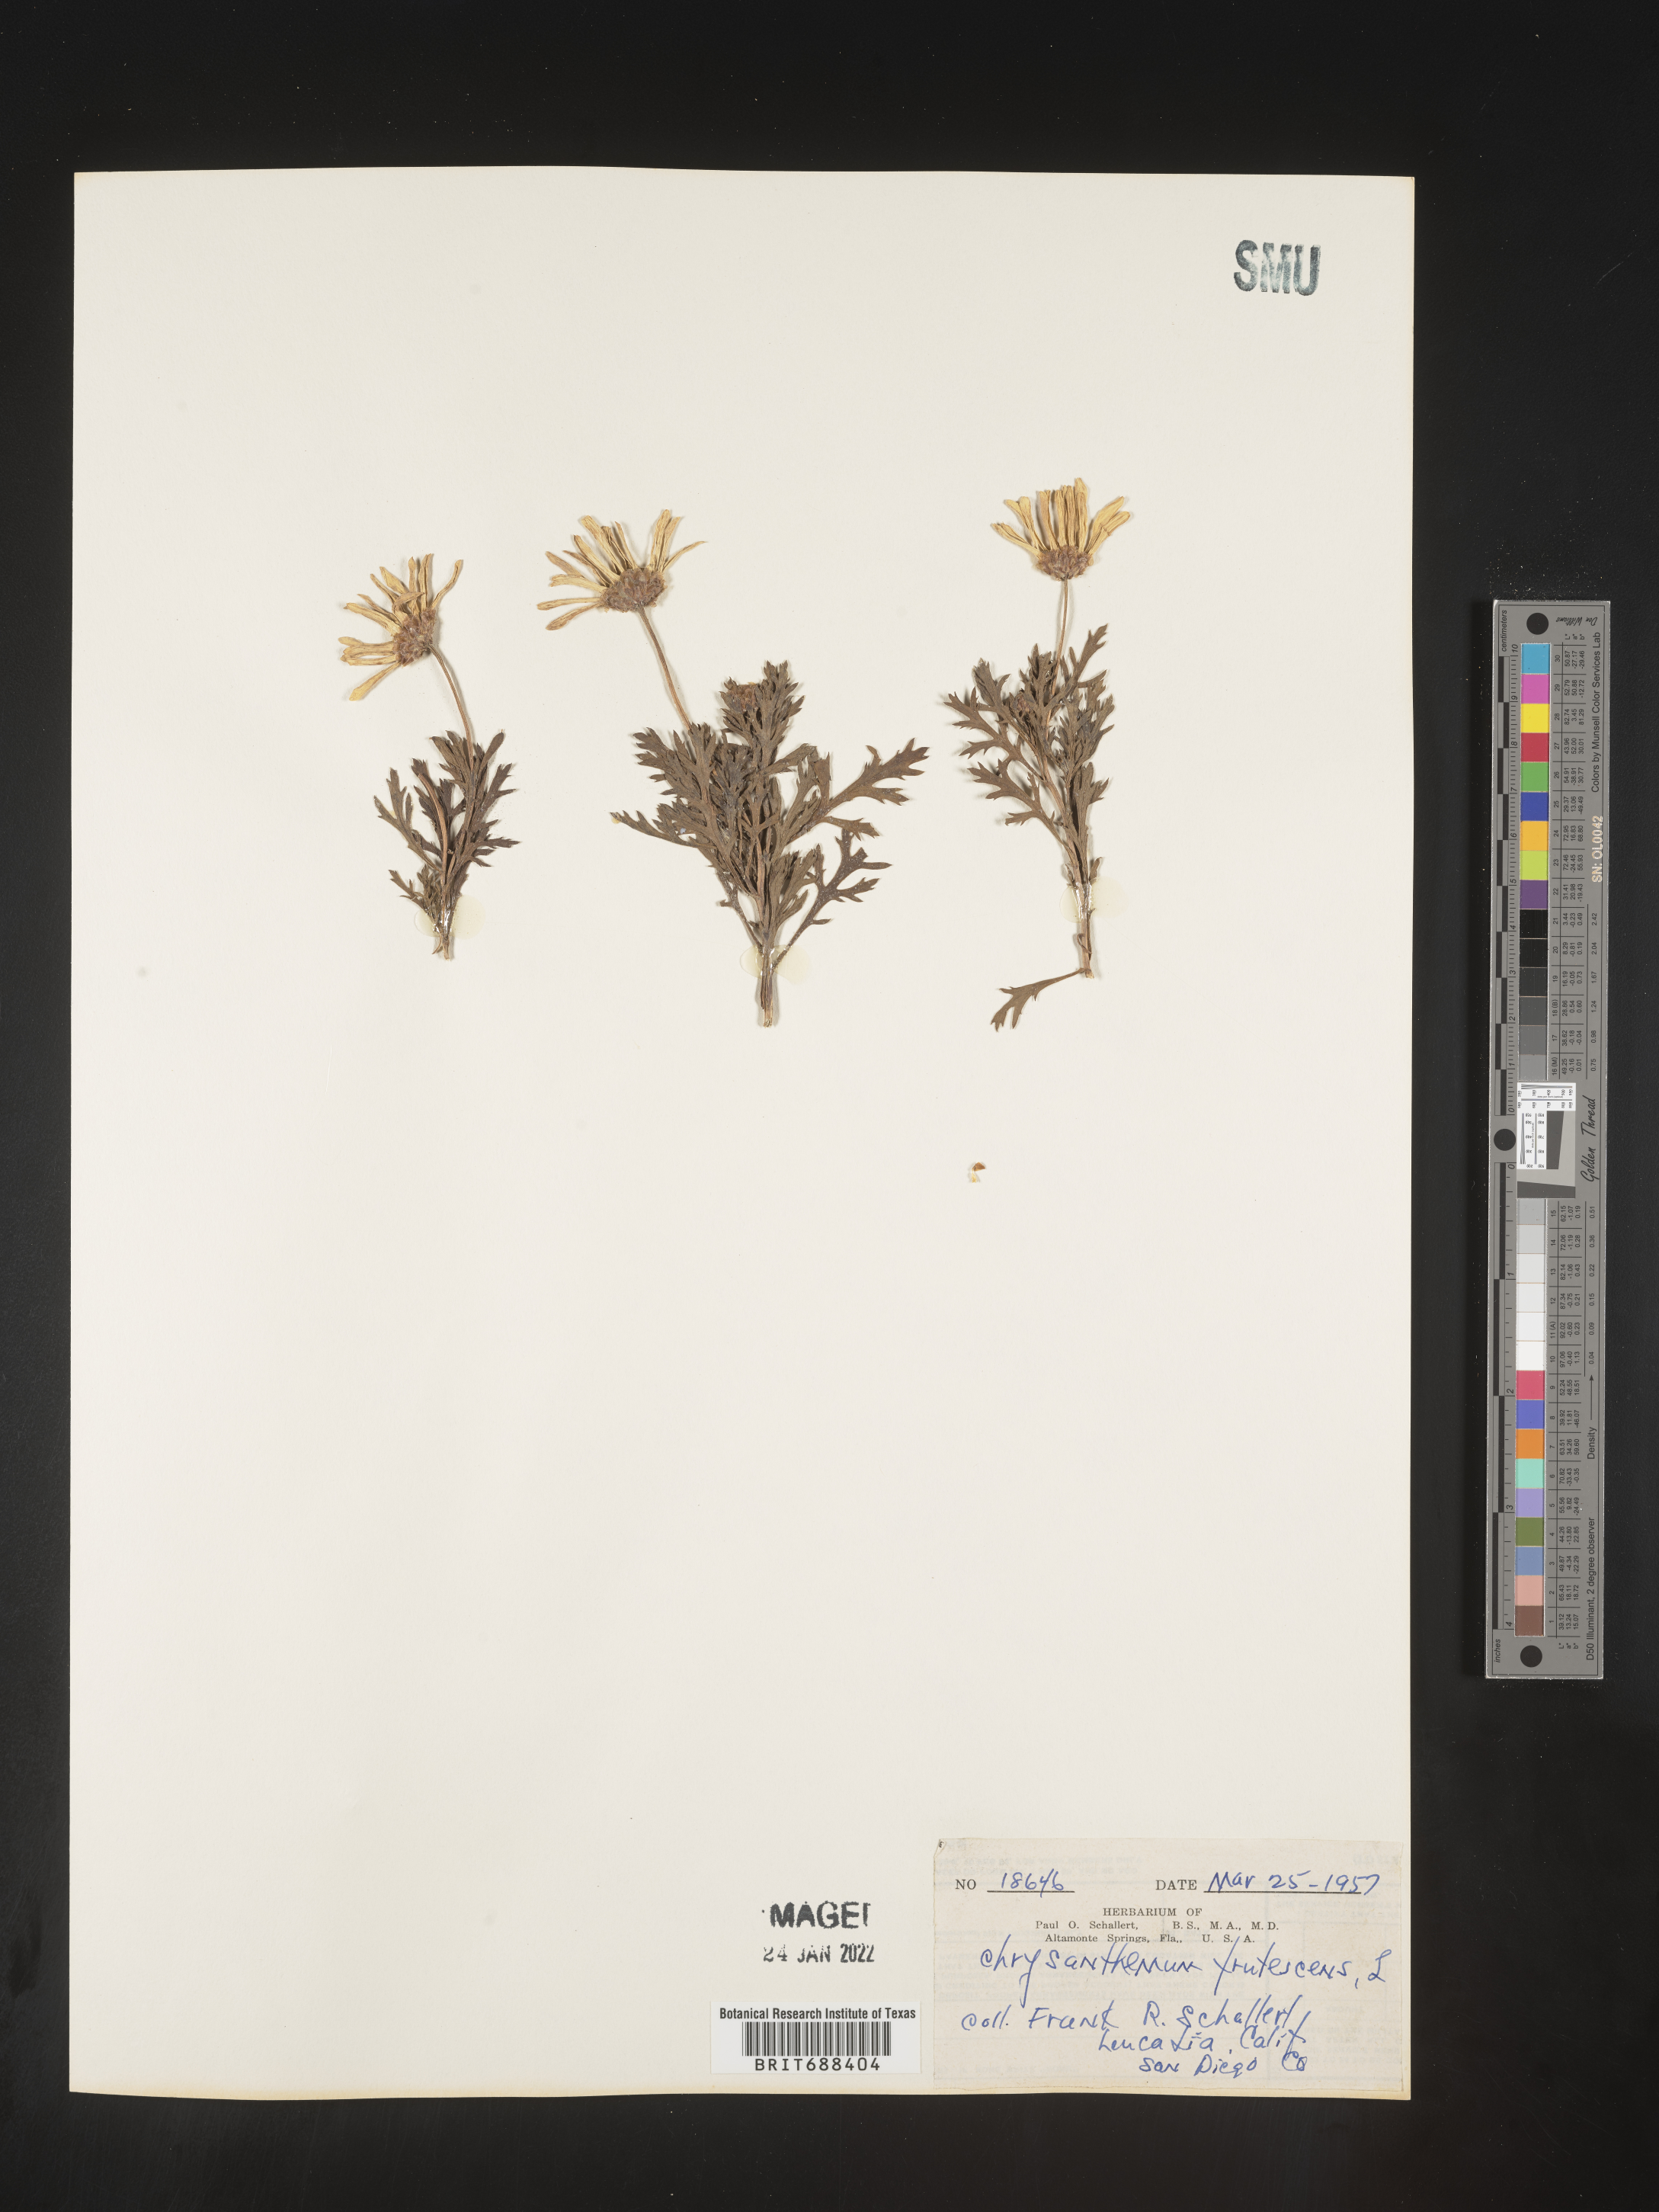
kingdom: Plantae
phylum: Tracheophyta
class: Magnoliopsida
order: Asterales
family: Asteraceae
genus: Chrysanthemum
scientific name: Chrysanthemum
